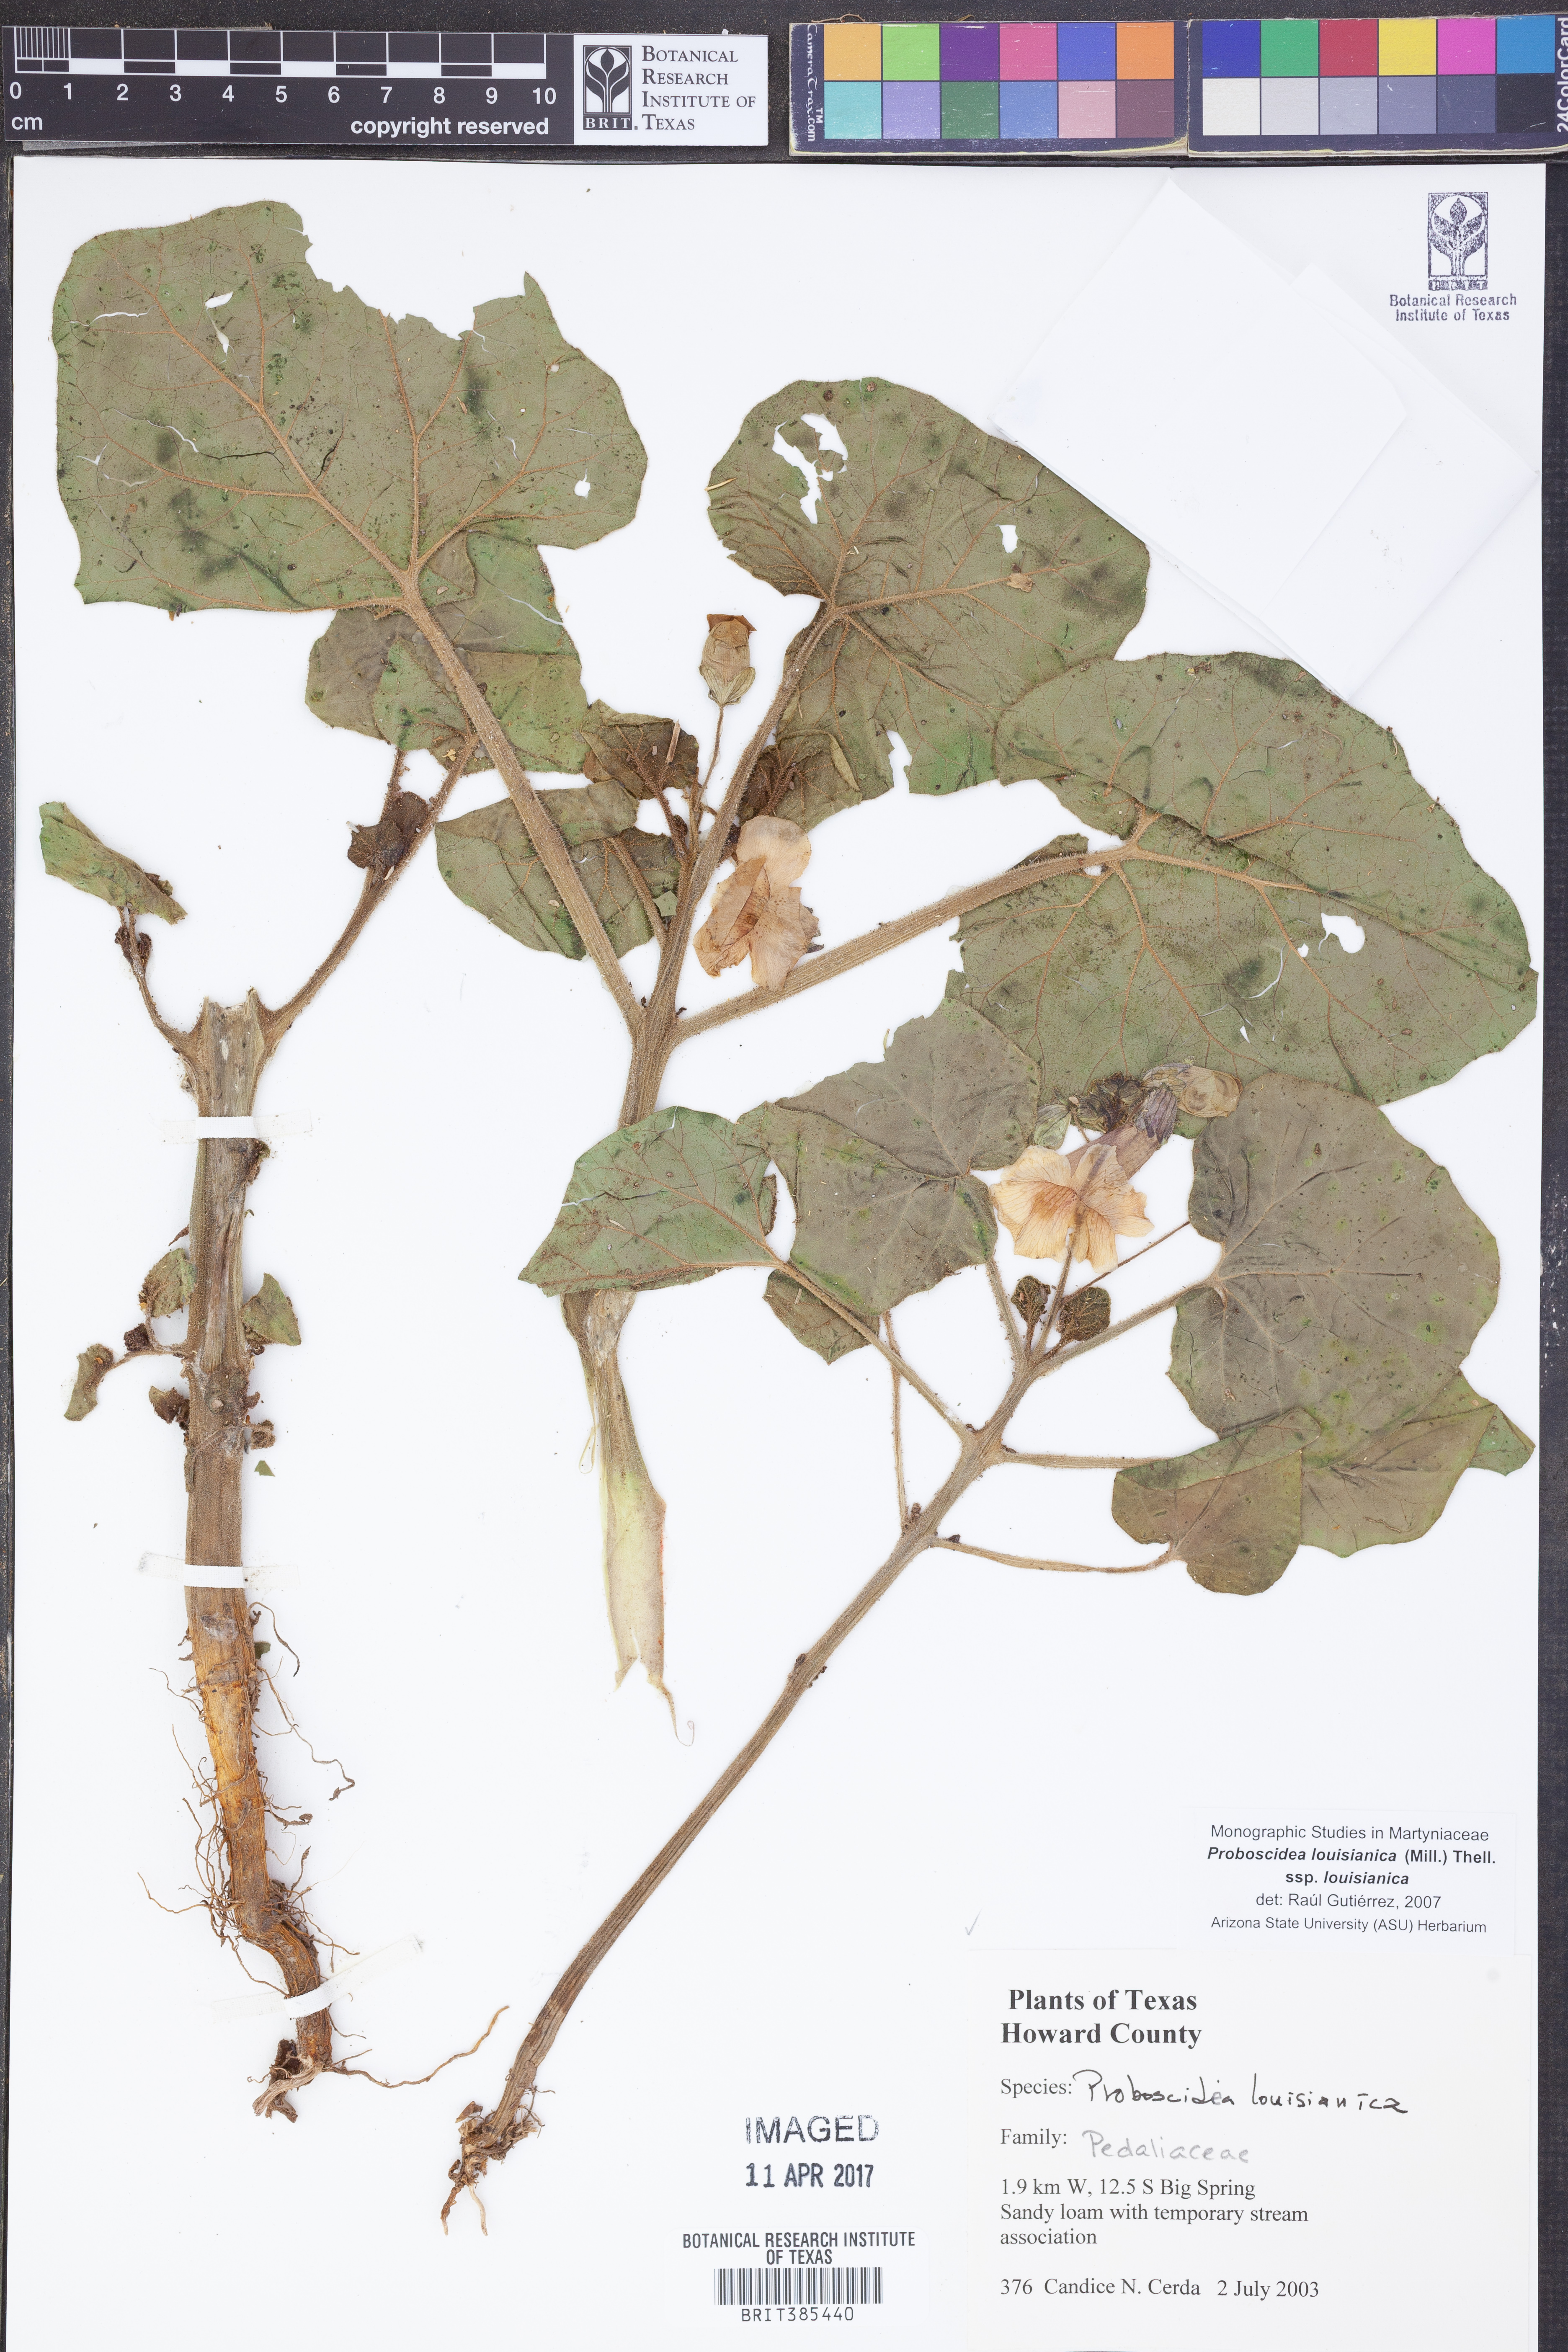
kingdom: Plantae
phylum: Tracheophyta
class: Magnoliopsida
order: Lamiales
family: Martyniaceae
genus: Proboscidea
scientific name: Proboscidea louisianica
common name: Elephant tusks
